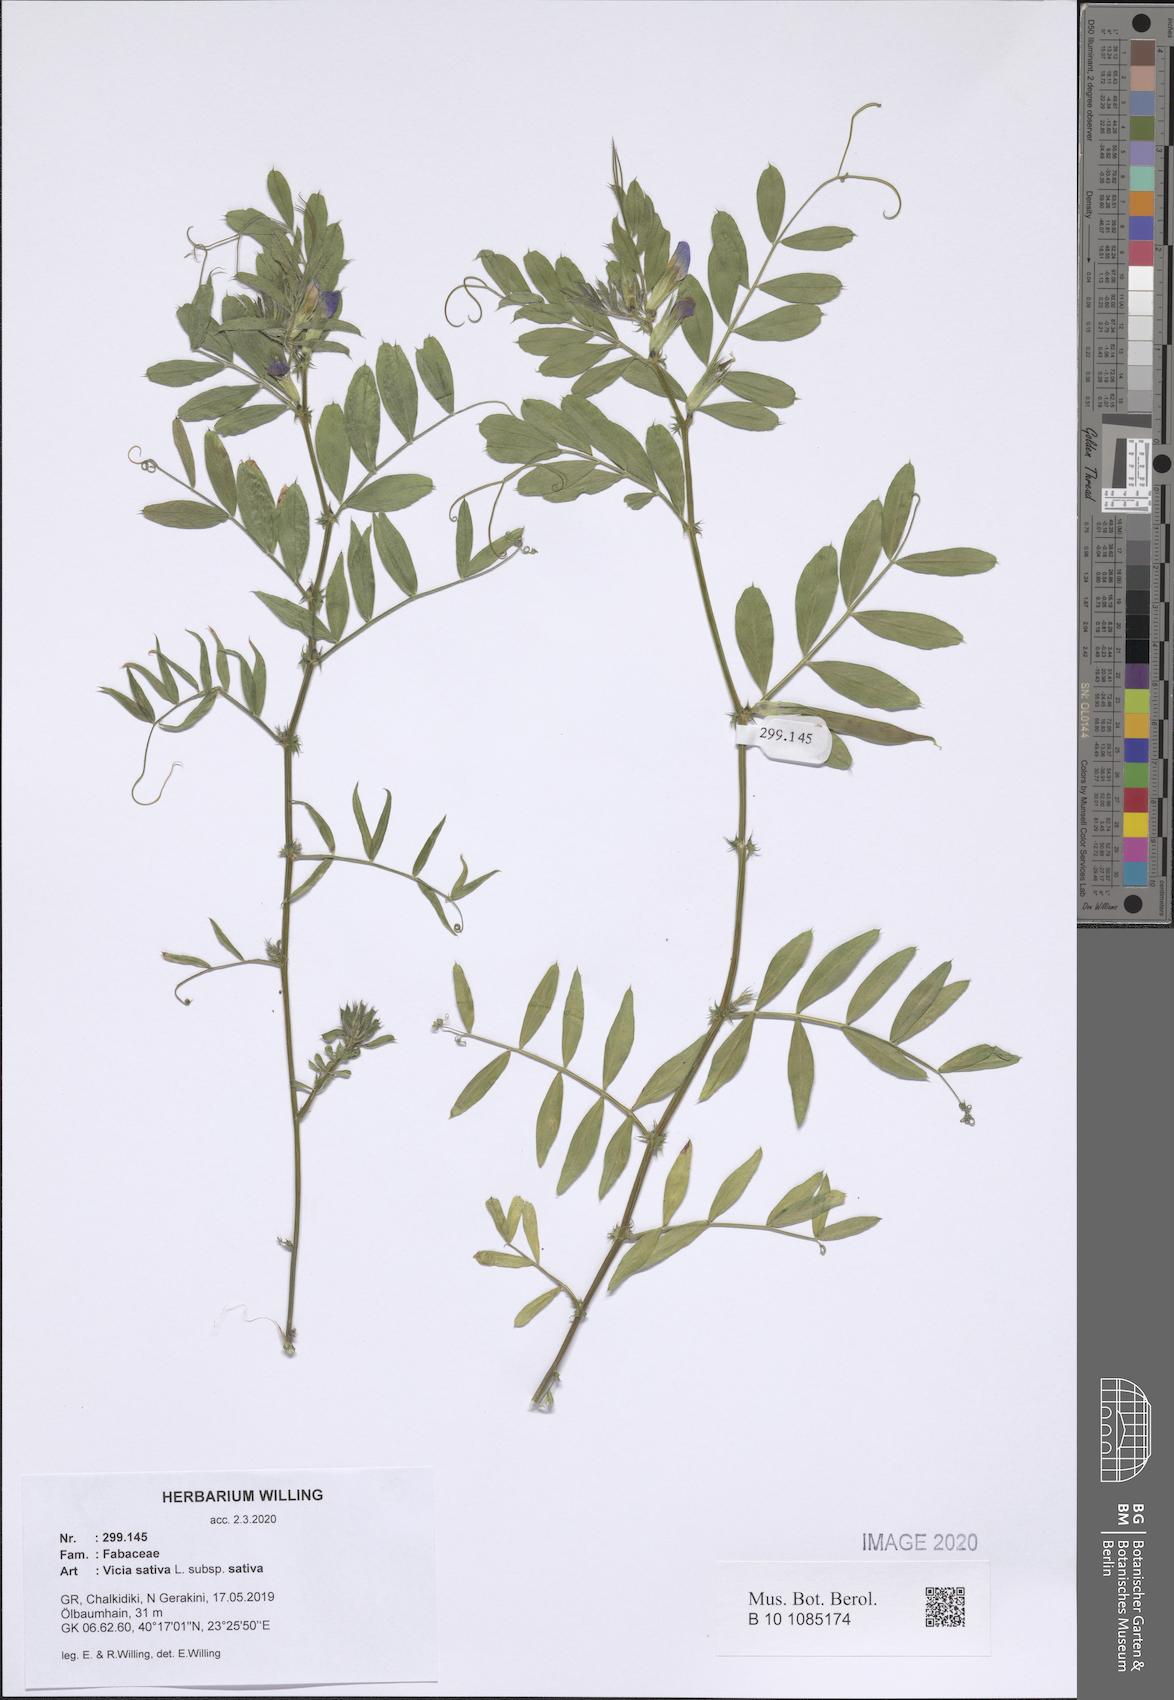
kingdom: Plantae
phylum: Tracheophyta
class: Magnoliopsida
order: Fabales
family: Fabaceae
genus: Vicia
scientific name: Vicia sativa
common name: Garden vetch
